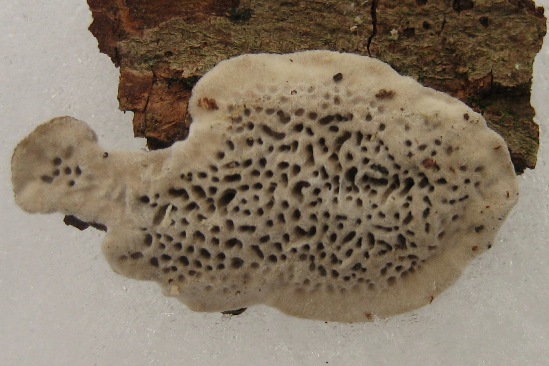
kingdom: Fungi
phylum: Basidiomycota
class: Agaricomycetes
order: Polyporales
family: Irpicaceae
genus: Resiniporus
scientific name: Resiniporus resinascens
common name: trist pastelporesvamp
